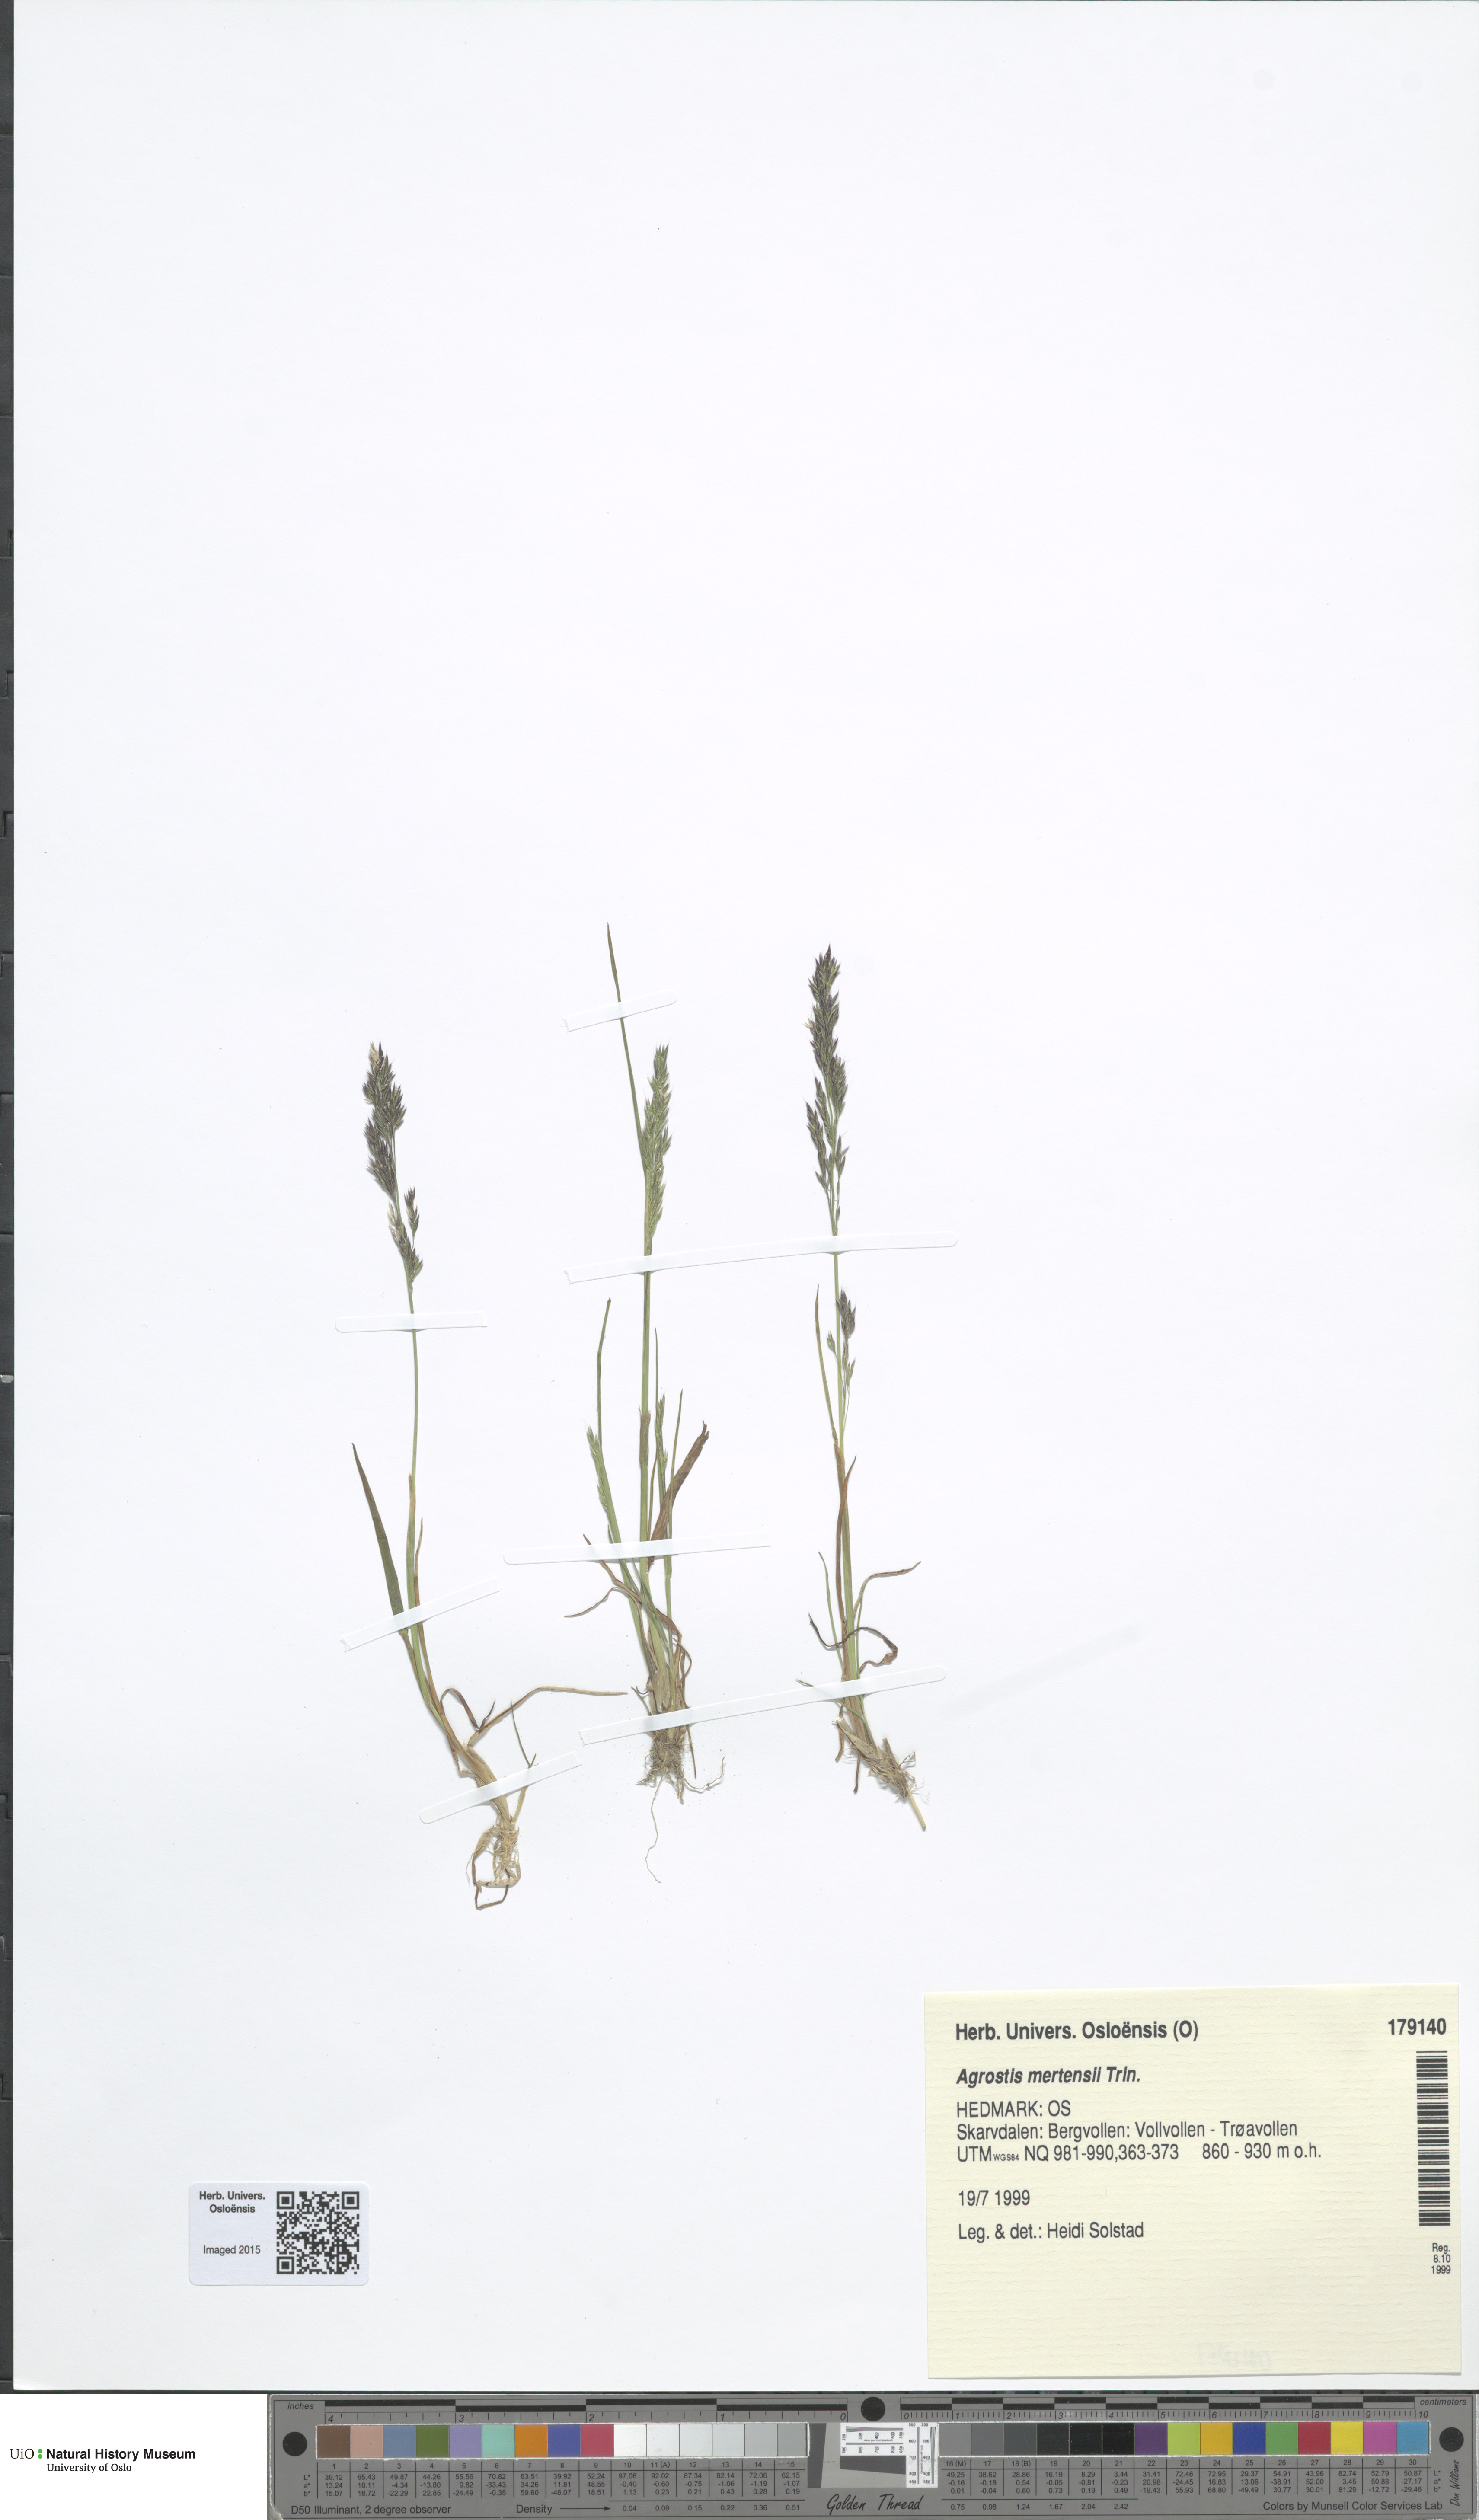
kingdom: Plantae
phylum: Tracheophyta
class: Liliopsida
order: Poales
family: Poaceae
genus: Agrostis
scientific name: Agrostis mertensii
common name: Northern bent
